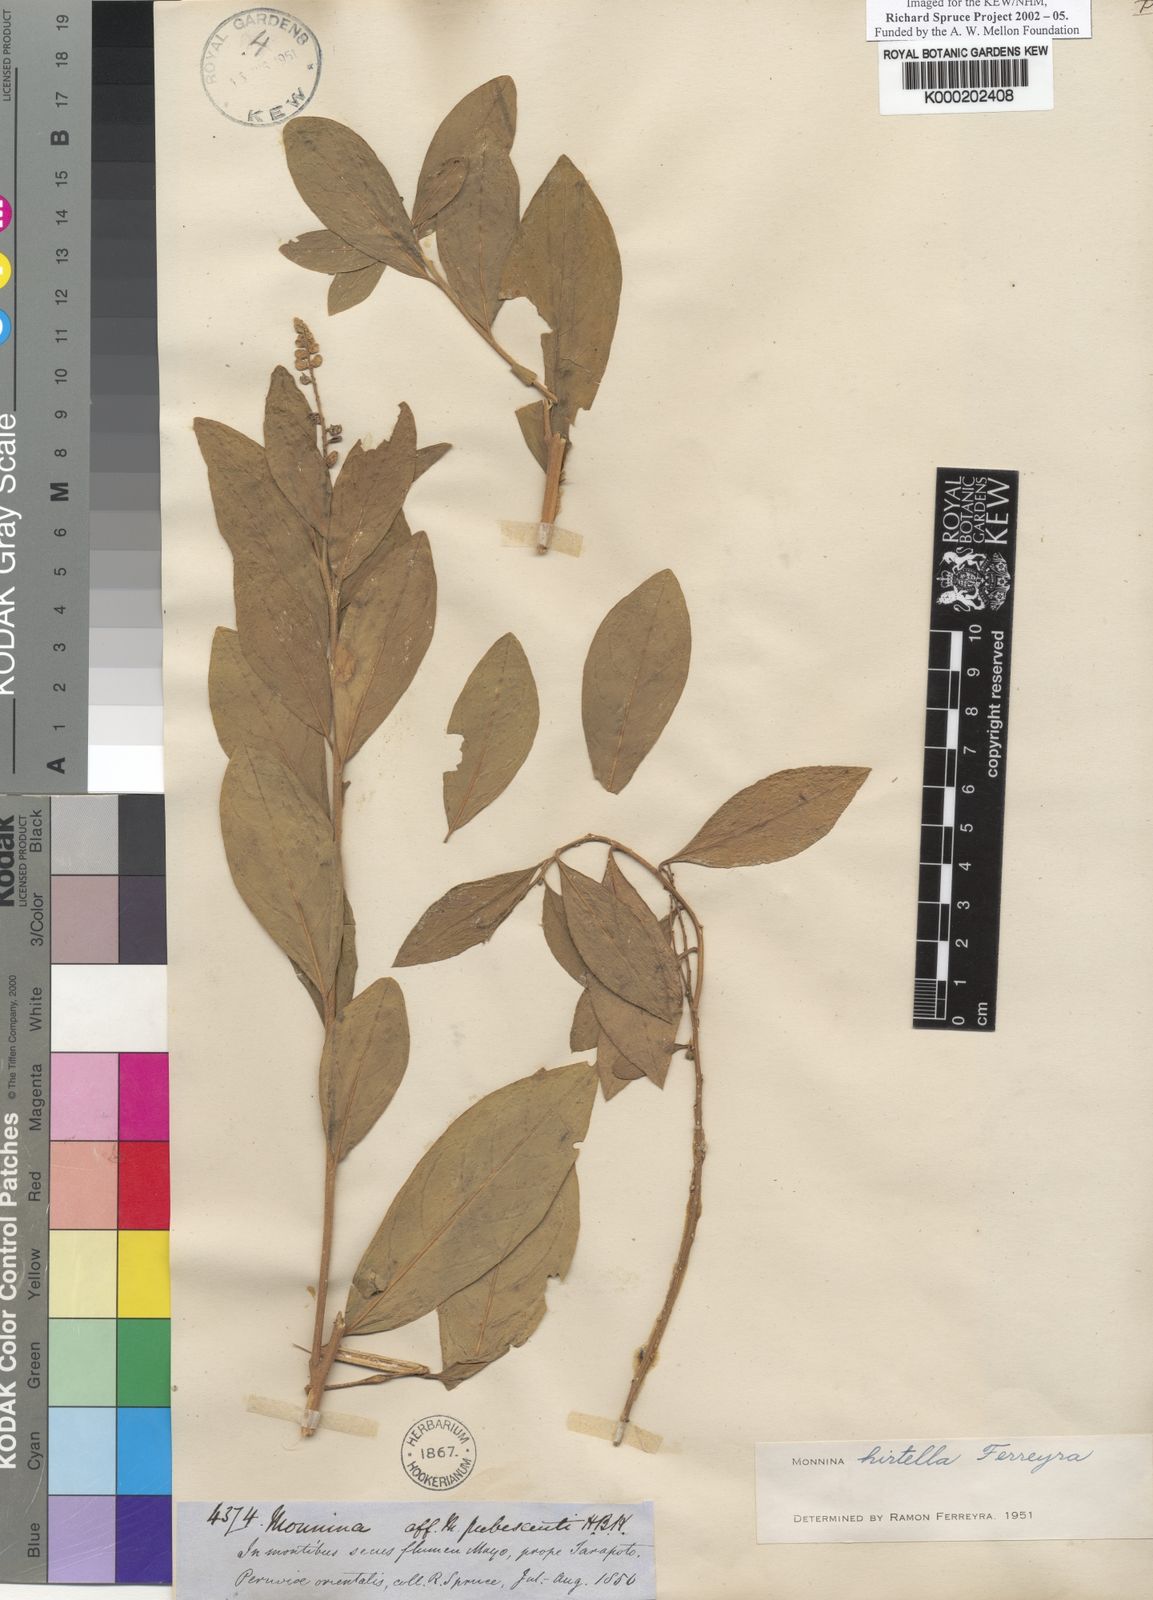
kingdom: Plantae
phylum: Tracheophyta
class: Magnoliopsida
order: Fabales
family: Polygalaceae
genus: Monnina
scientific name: Monnina hirtella
